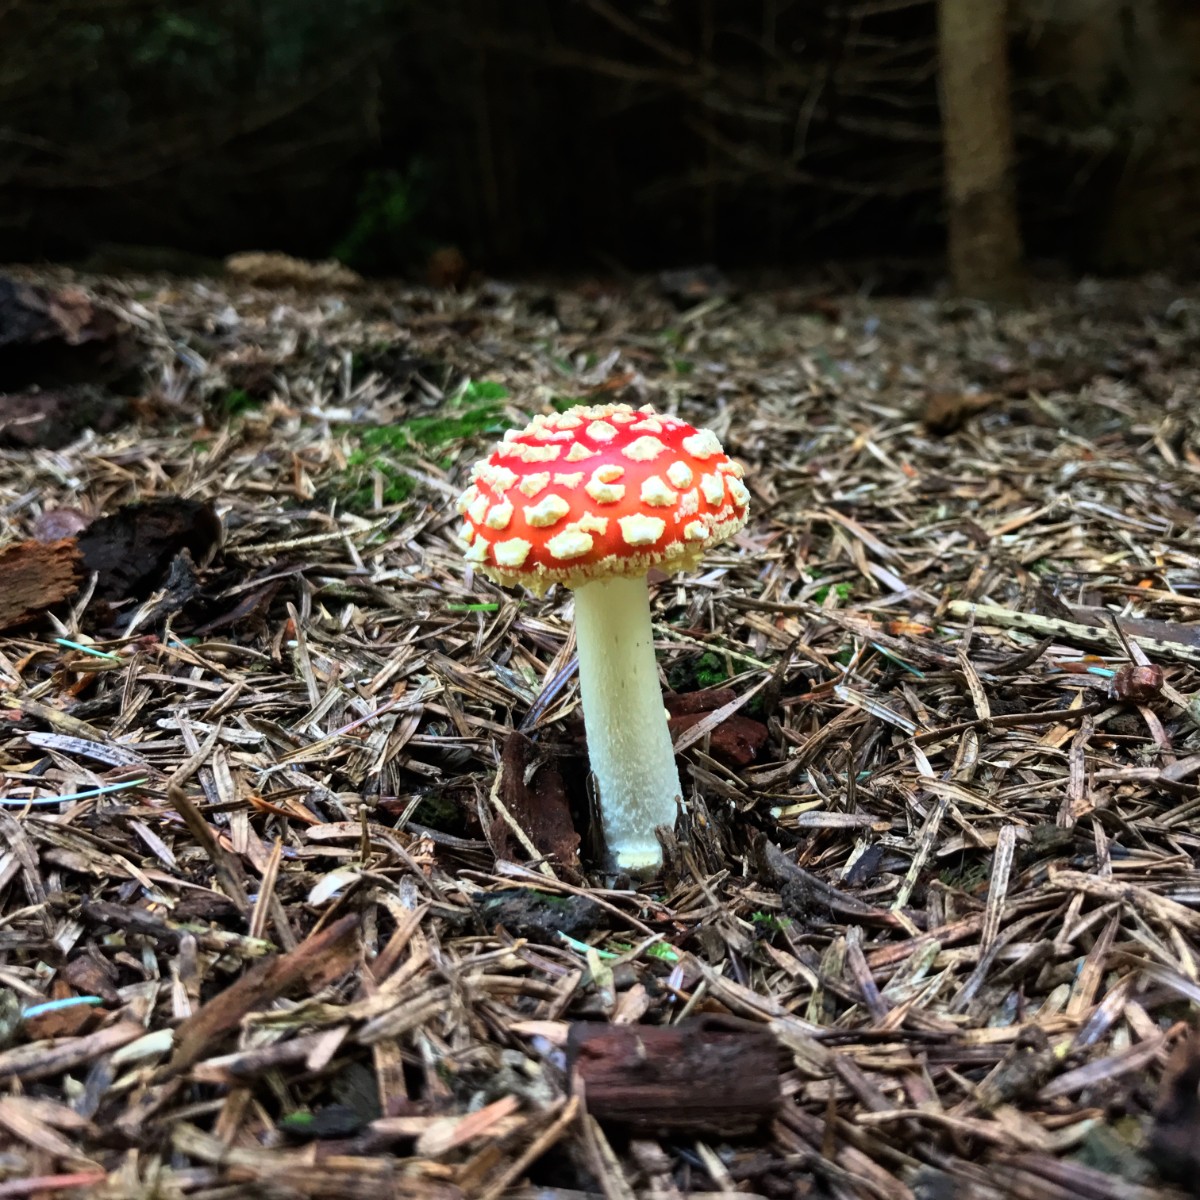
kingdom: Fungi
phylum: Basidiomycota
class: Agaricomycetes
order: Agaricales
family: Amanitaceae
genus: Amanita
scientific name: Amanita muscaria
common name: rød fluesvamp
